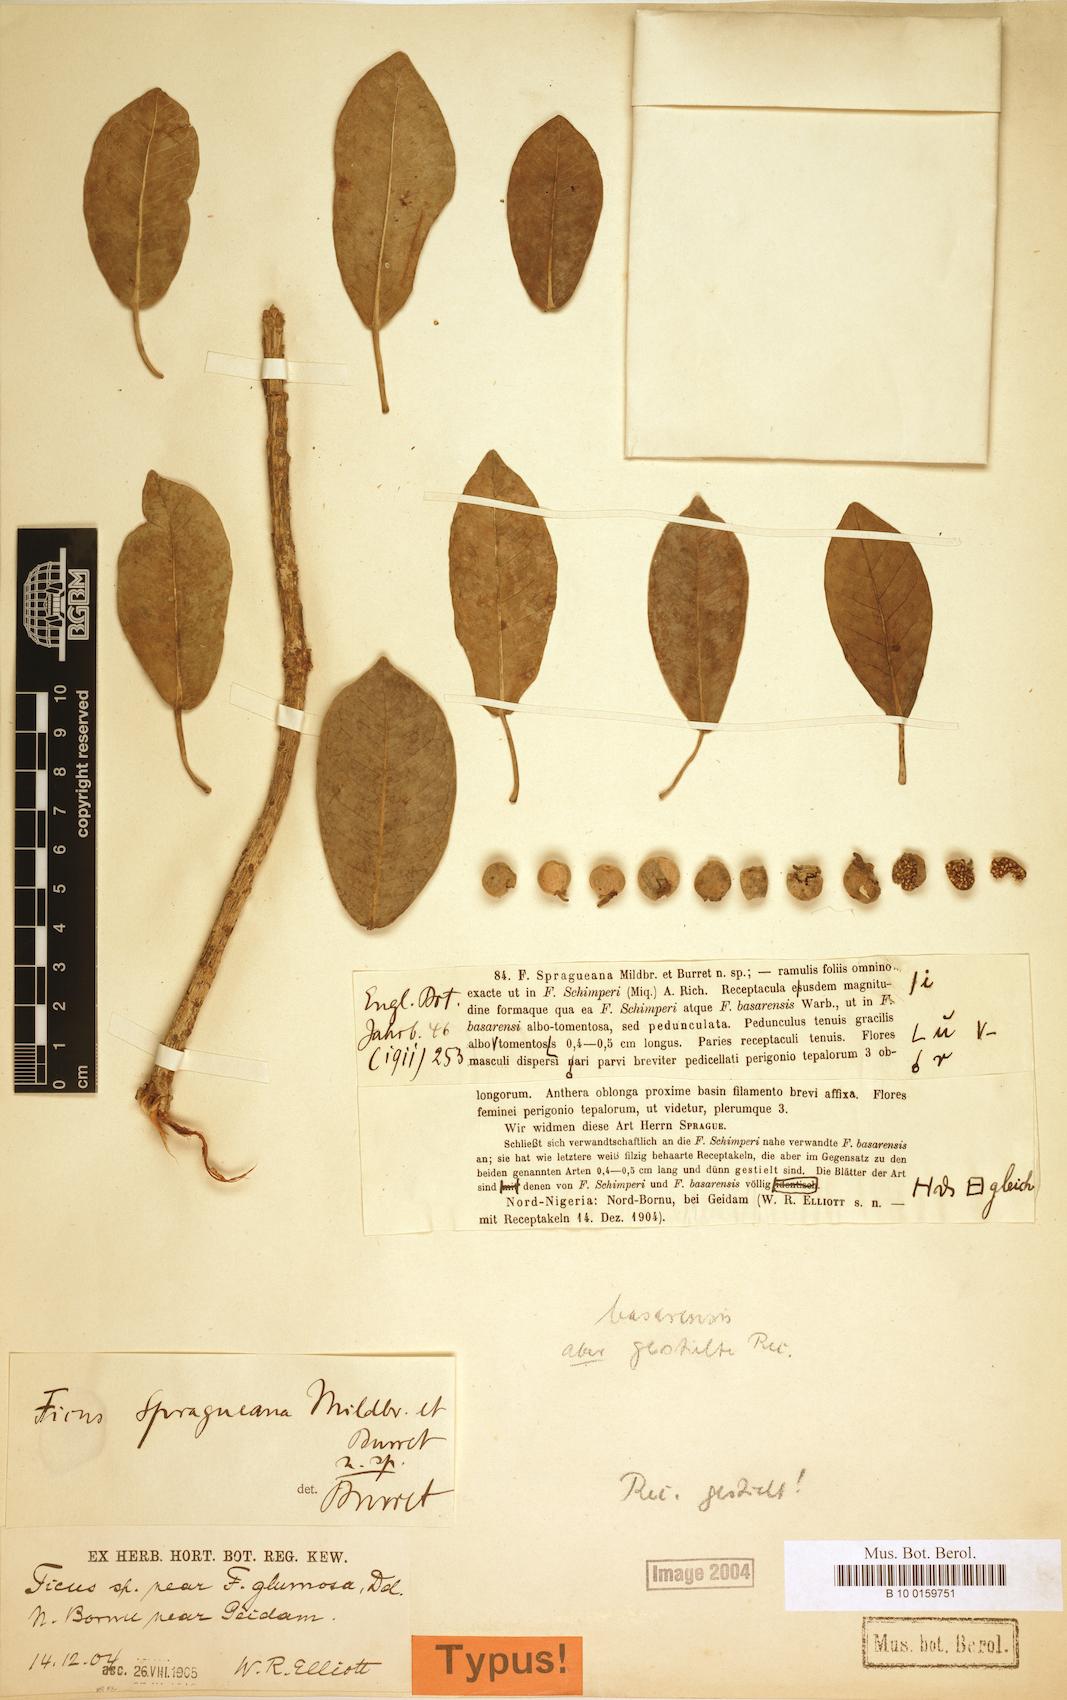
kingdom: Plantae
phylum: Tracheophyta
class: Magnoliopsida
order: Rosales
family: Moraceae
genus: Ficus
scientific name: Ficus thonningii
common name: Fig
